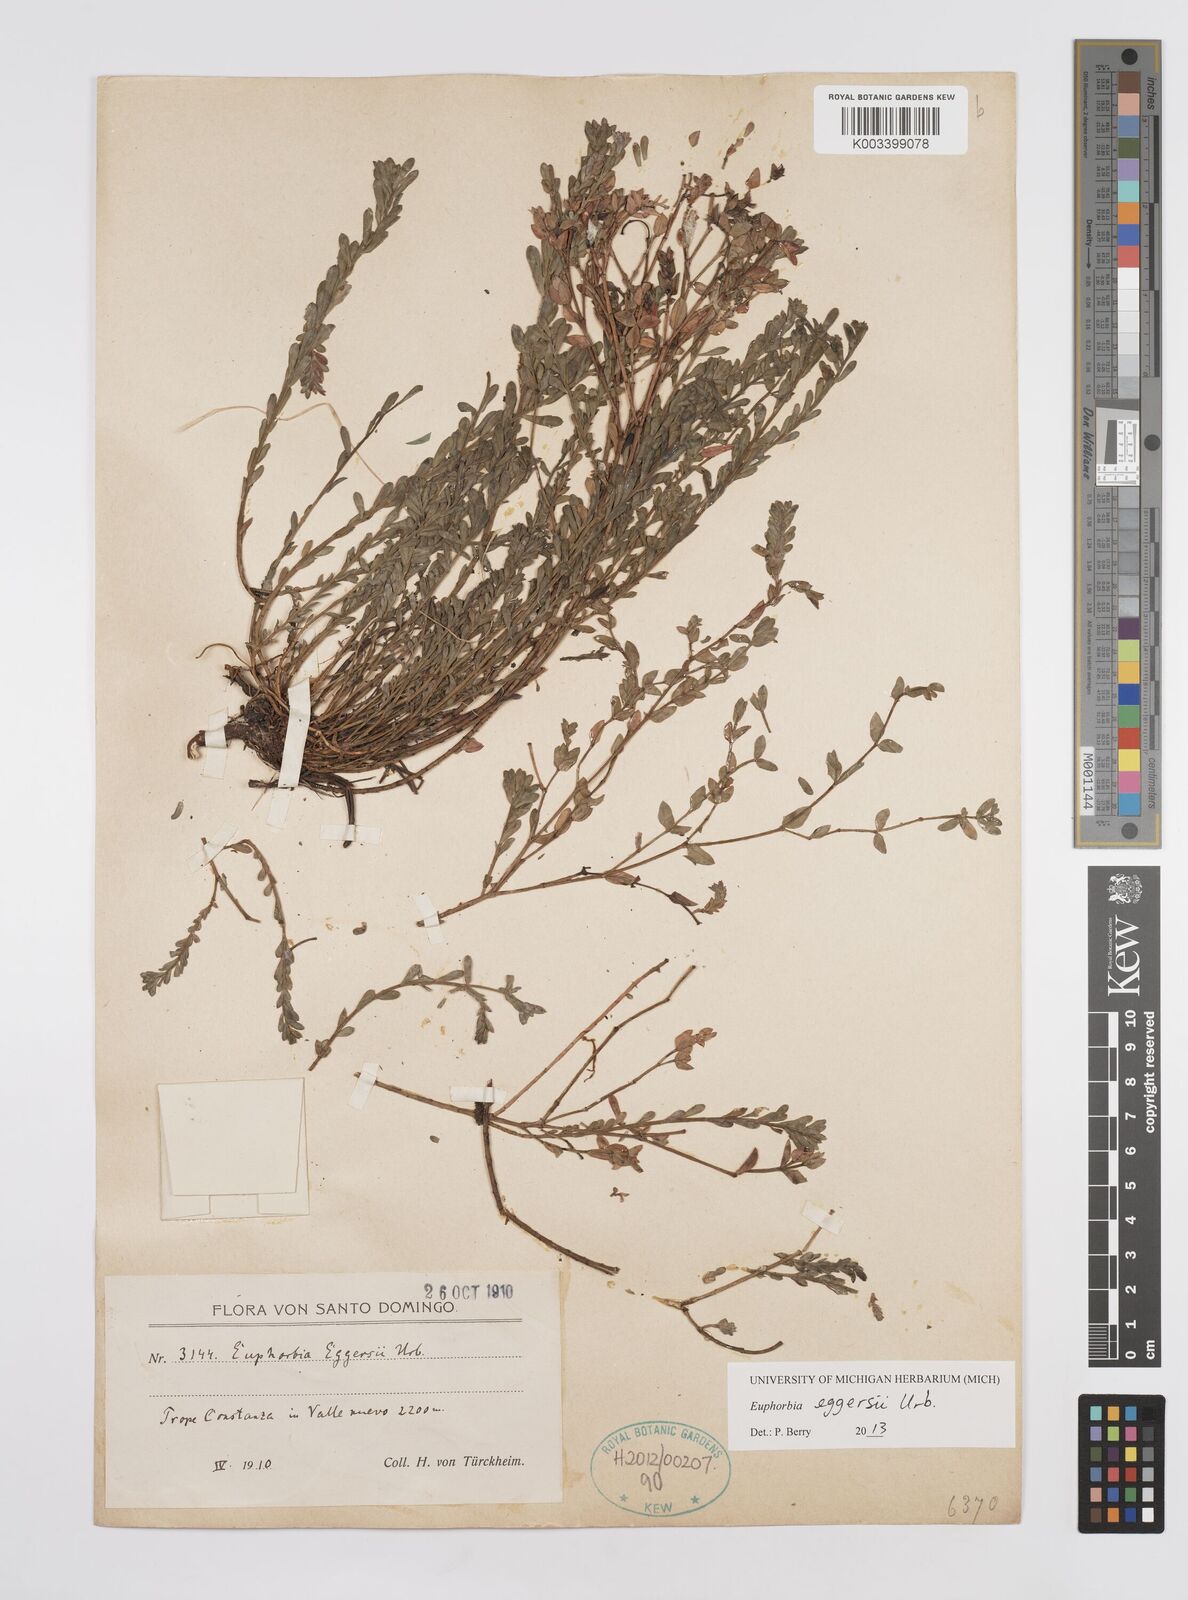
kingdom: Plantae
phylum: Tracheophyta
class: Magnoliopsida
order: Malpighiales
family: Euphorbiaceae
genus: Euphorbia
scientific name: Euphorbia eggersii
